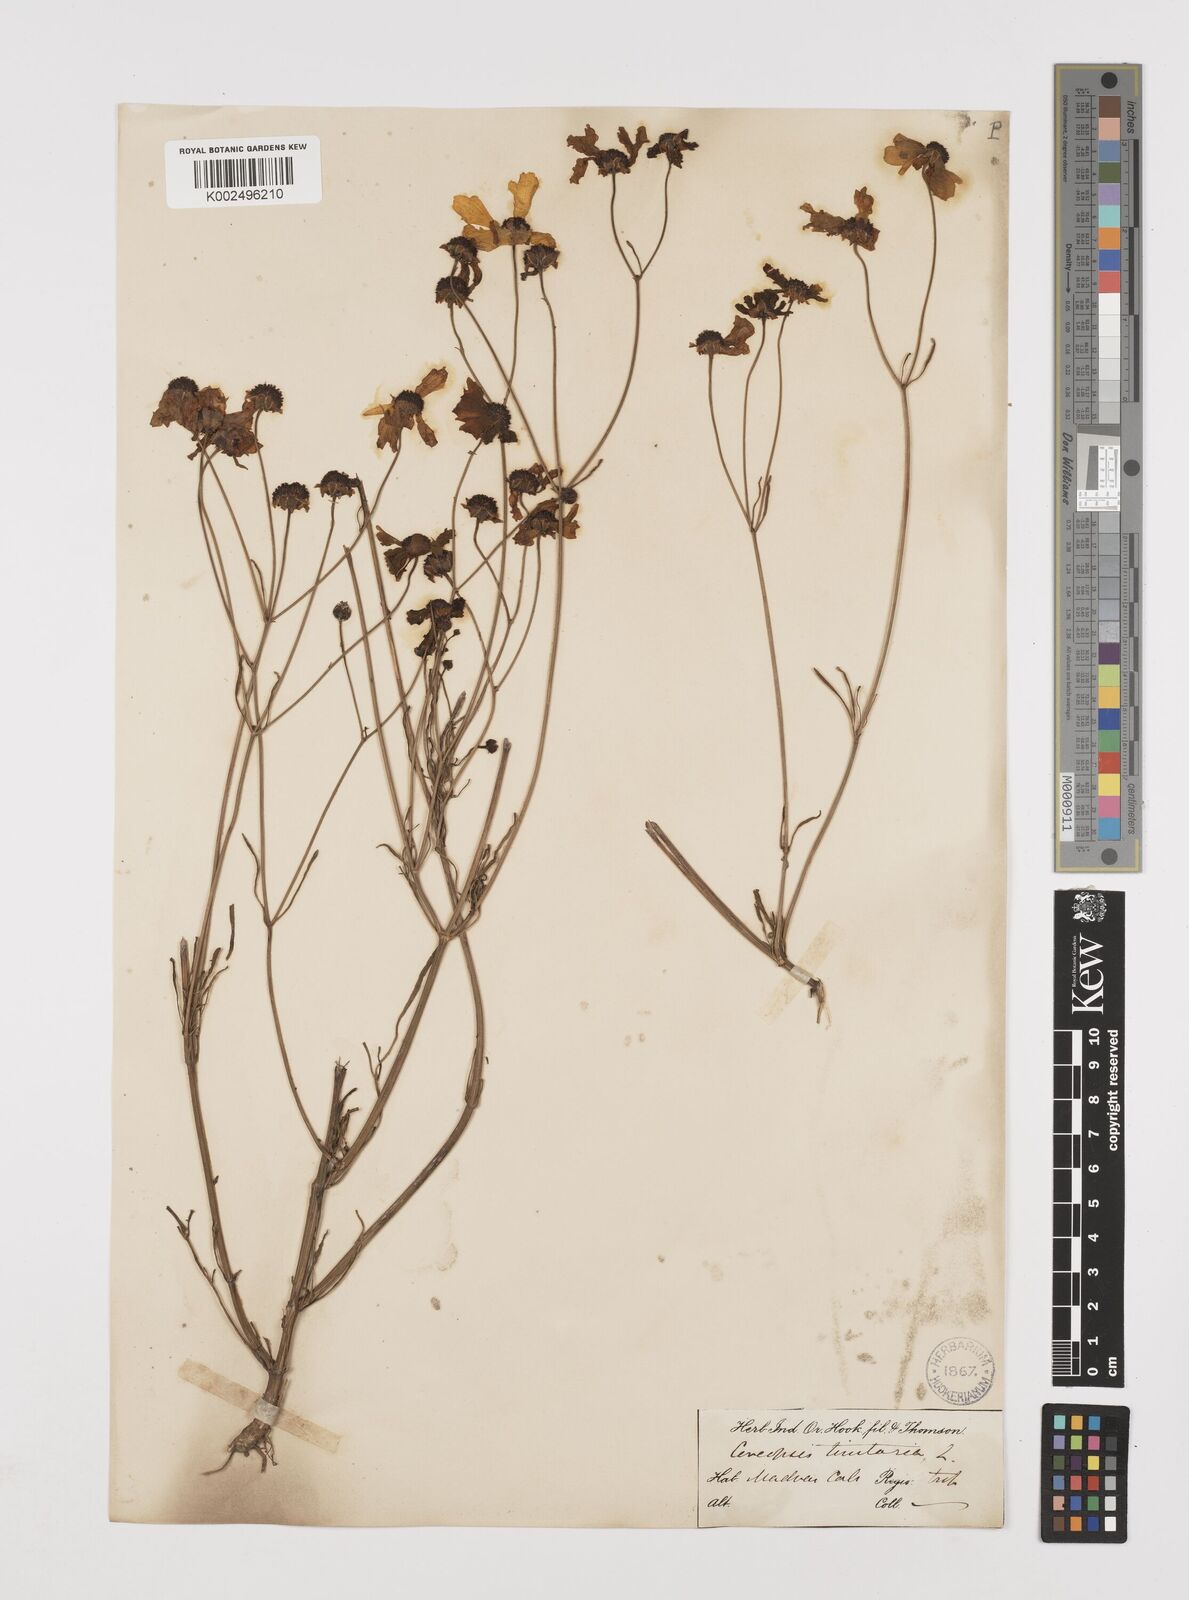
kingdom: Plantae
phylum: Tracheophyta
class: Magnoliopsida
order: Asterales
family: Asteraceae
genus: Coreopsis
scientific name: Coreopsis tinctoria
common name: Garden tickseed
